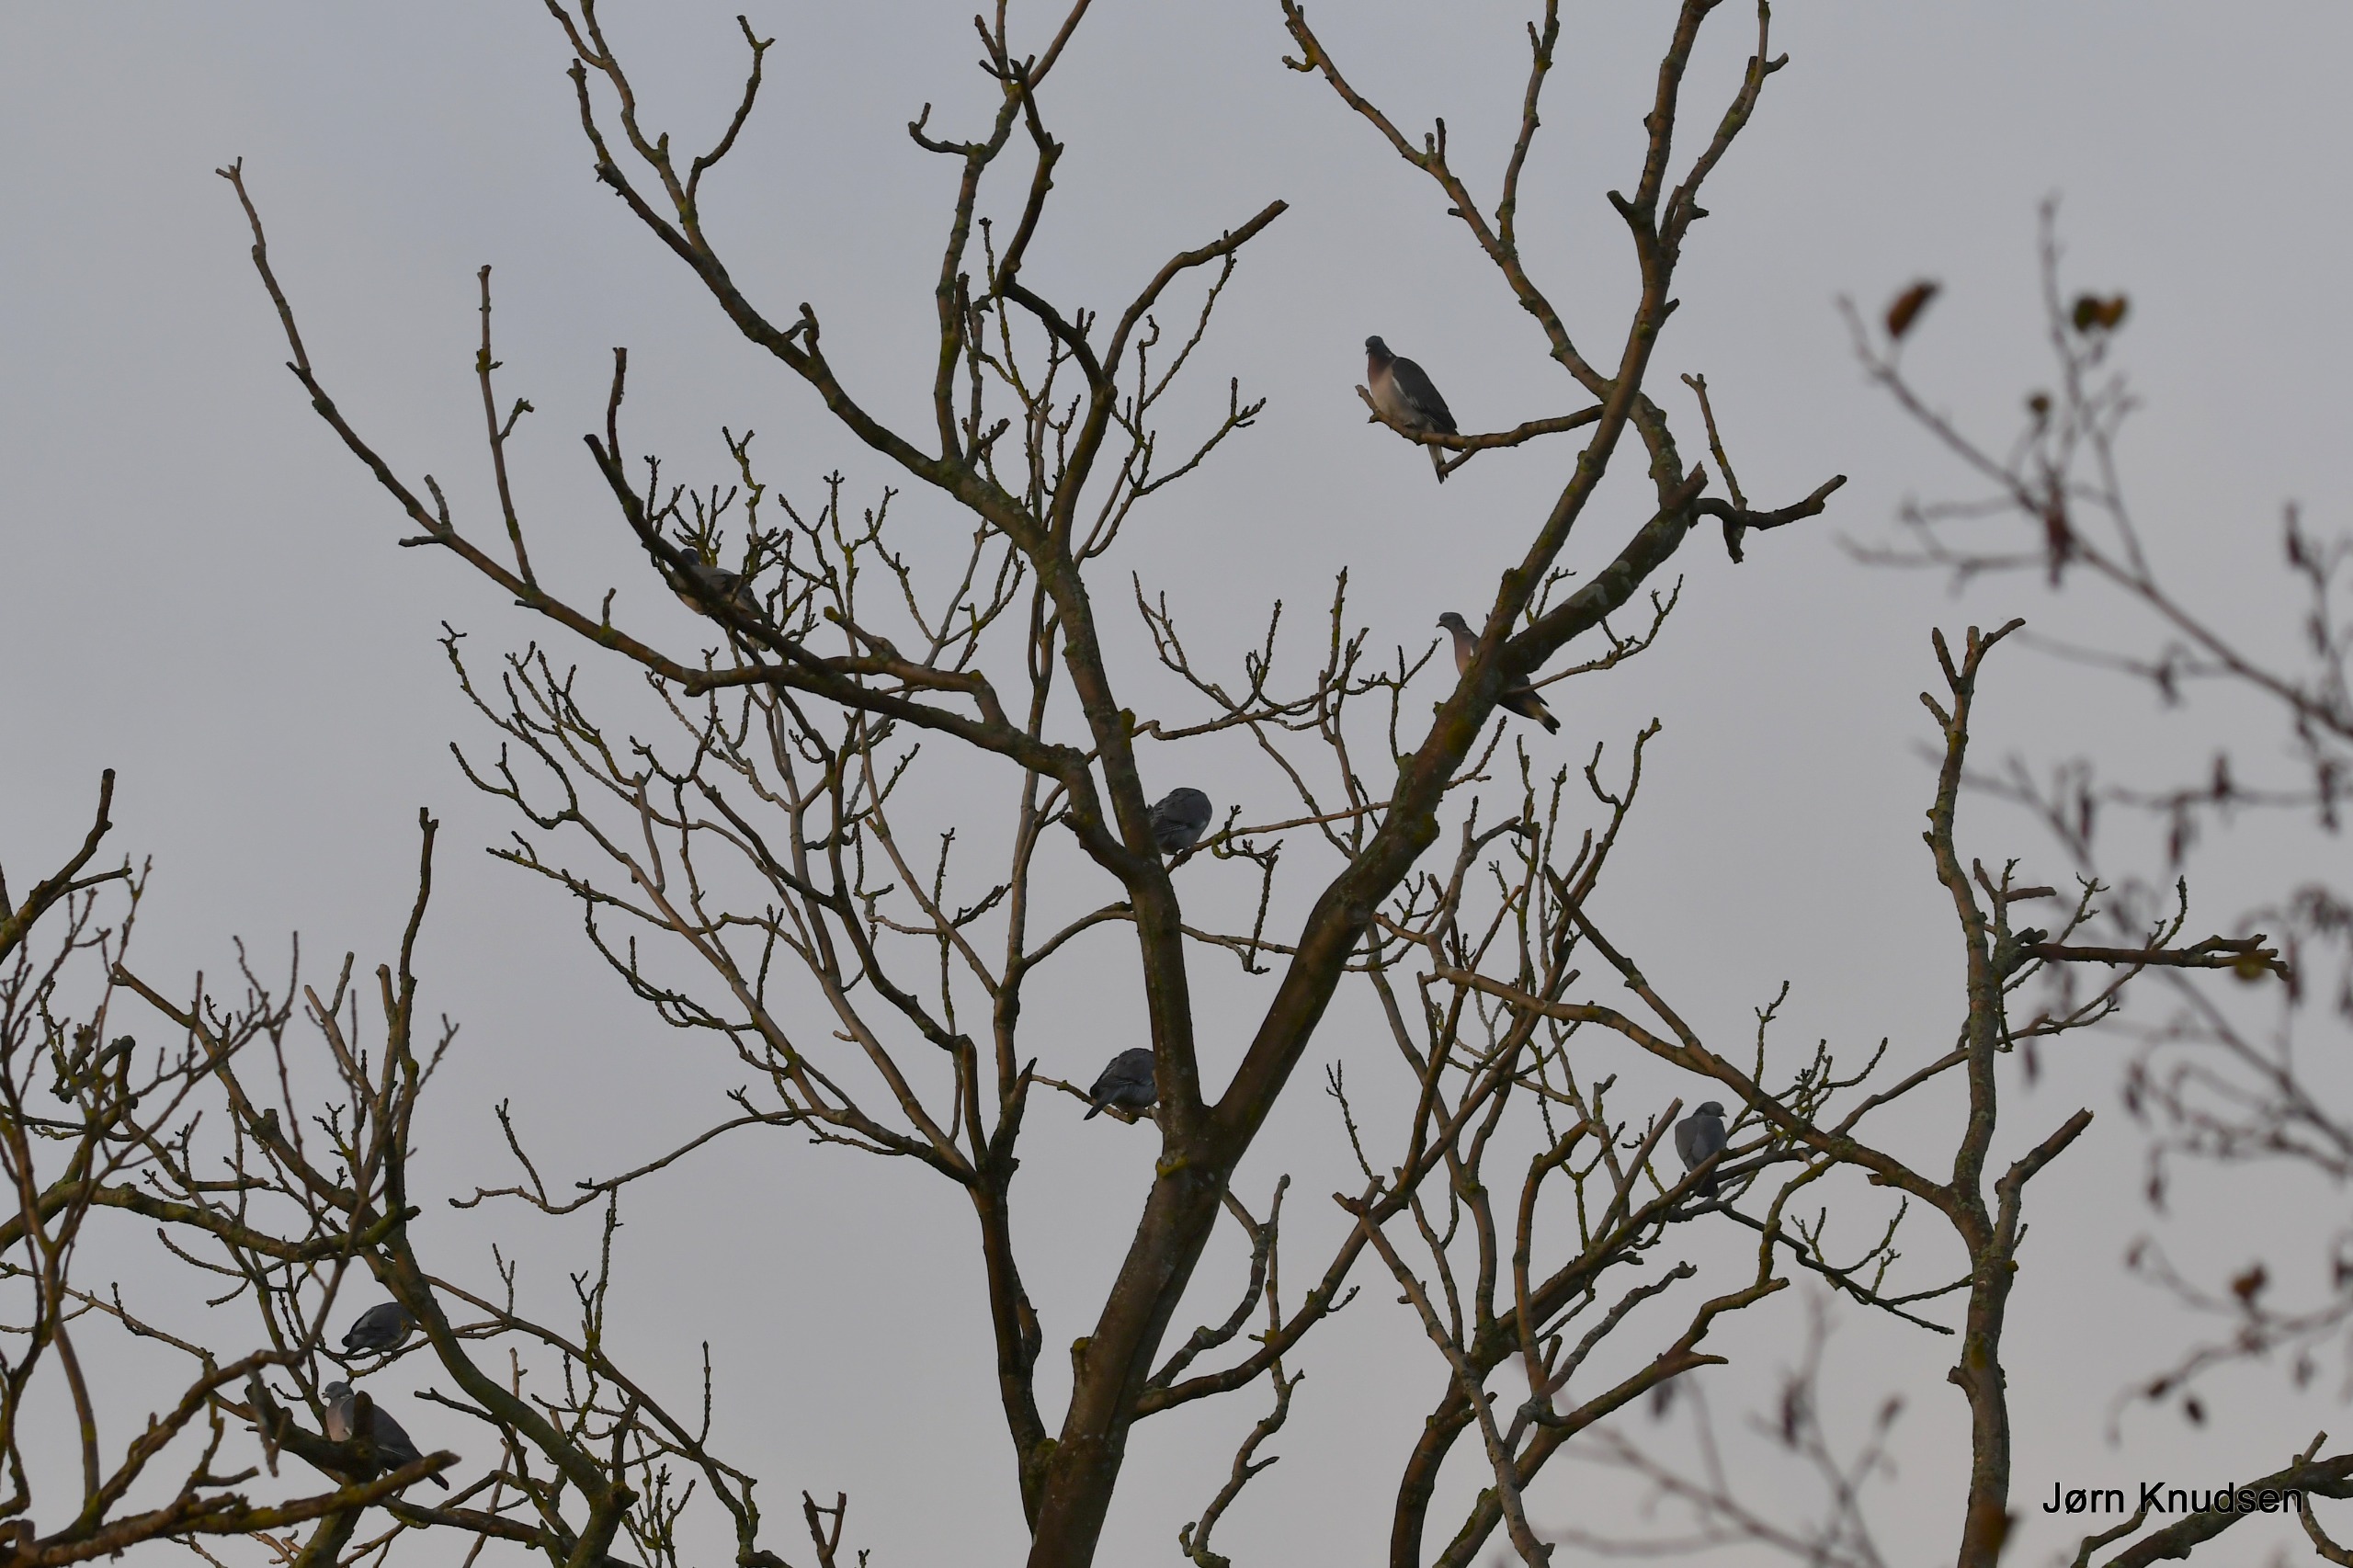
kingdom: Animalia
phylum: Chordata
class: Aves
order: Columbiformes
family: Columbidae
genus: Columba
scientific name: Columba palumbus
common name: Ringdue
